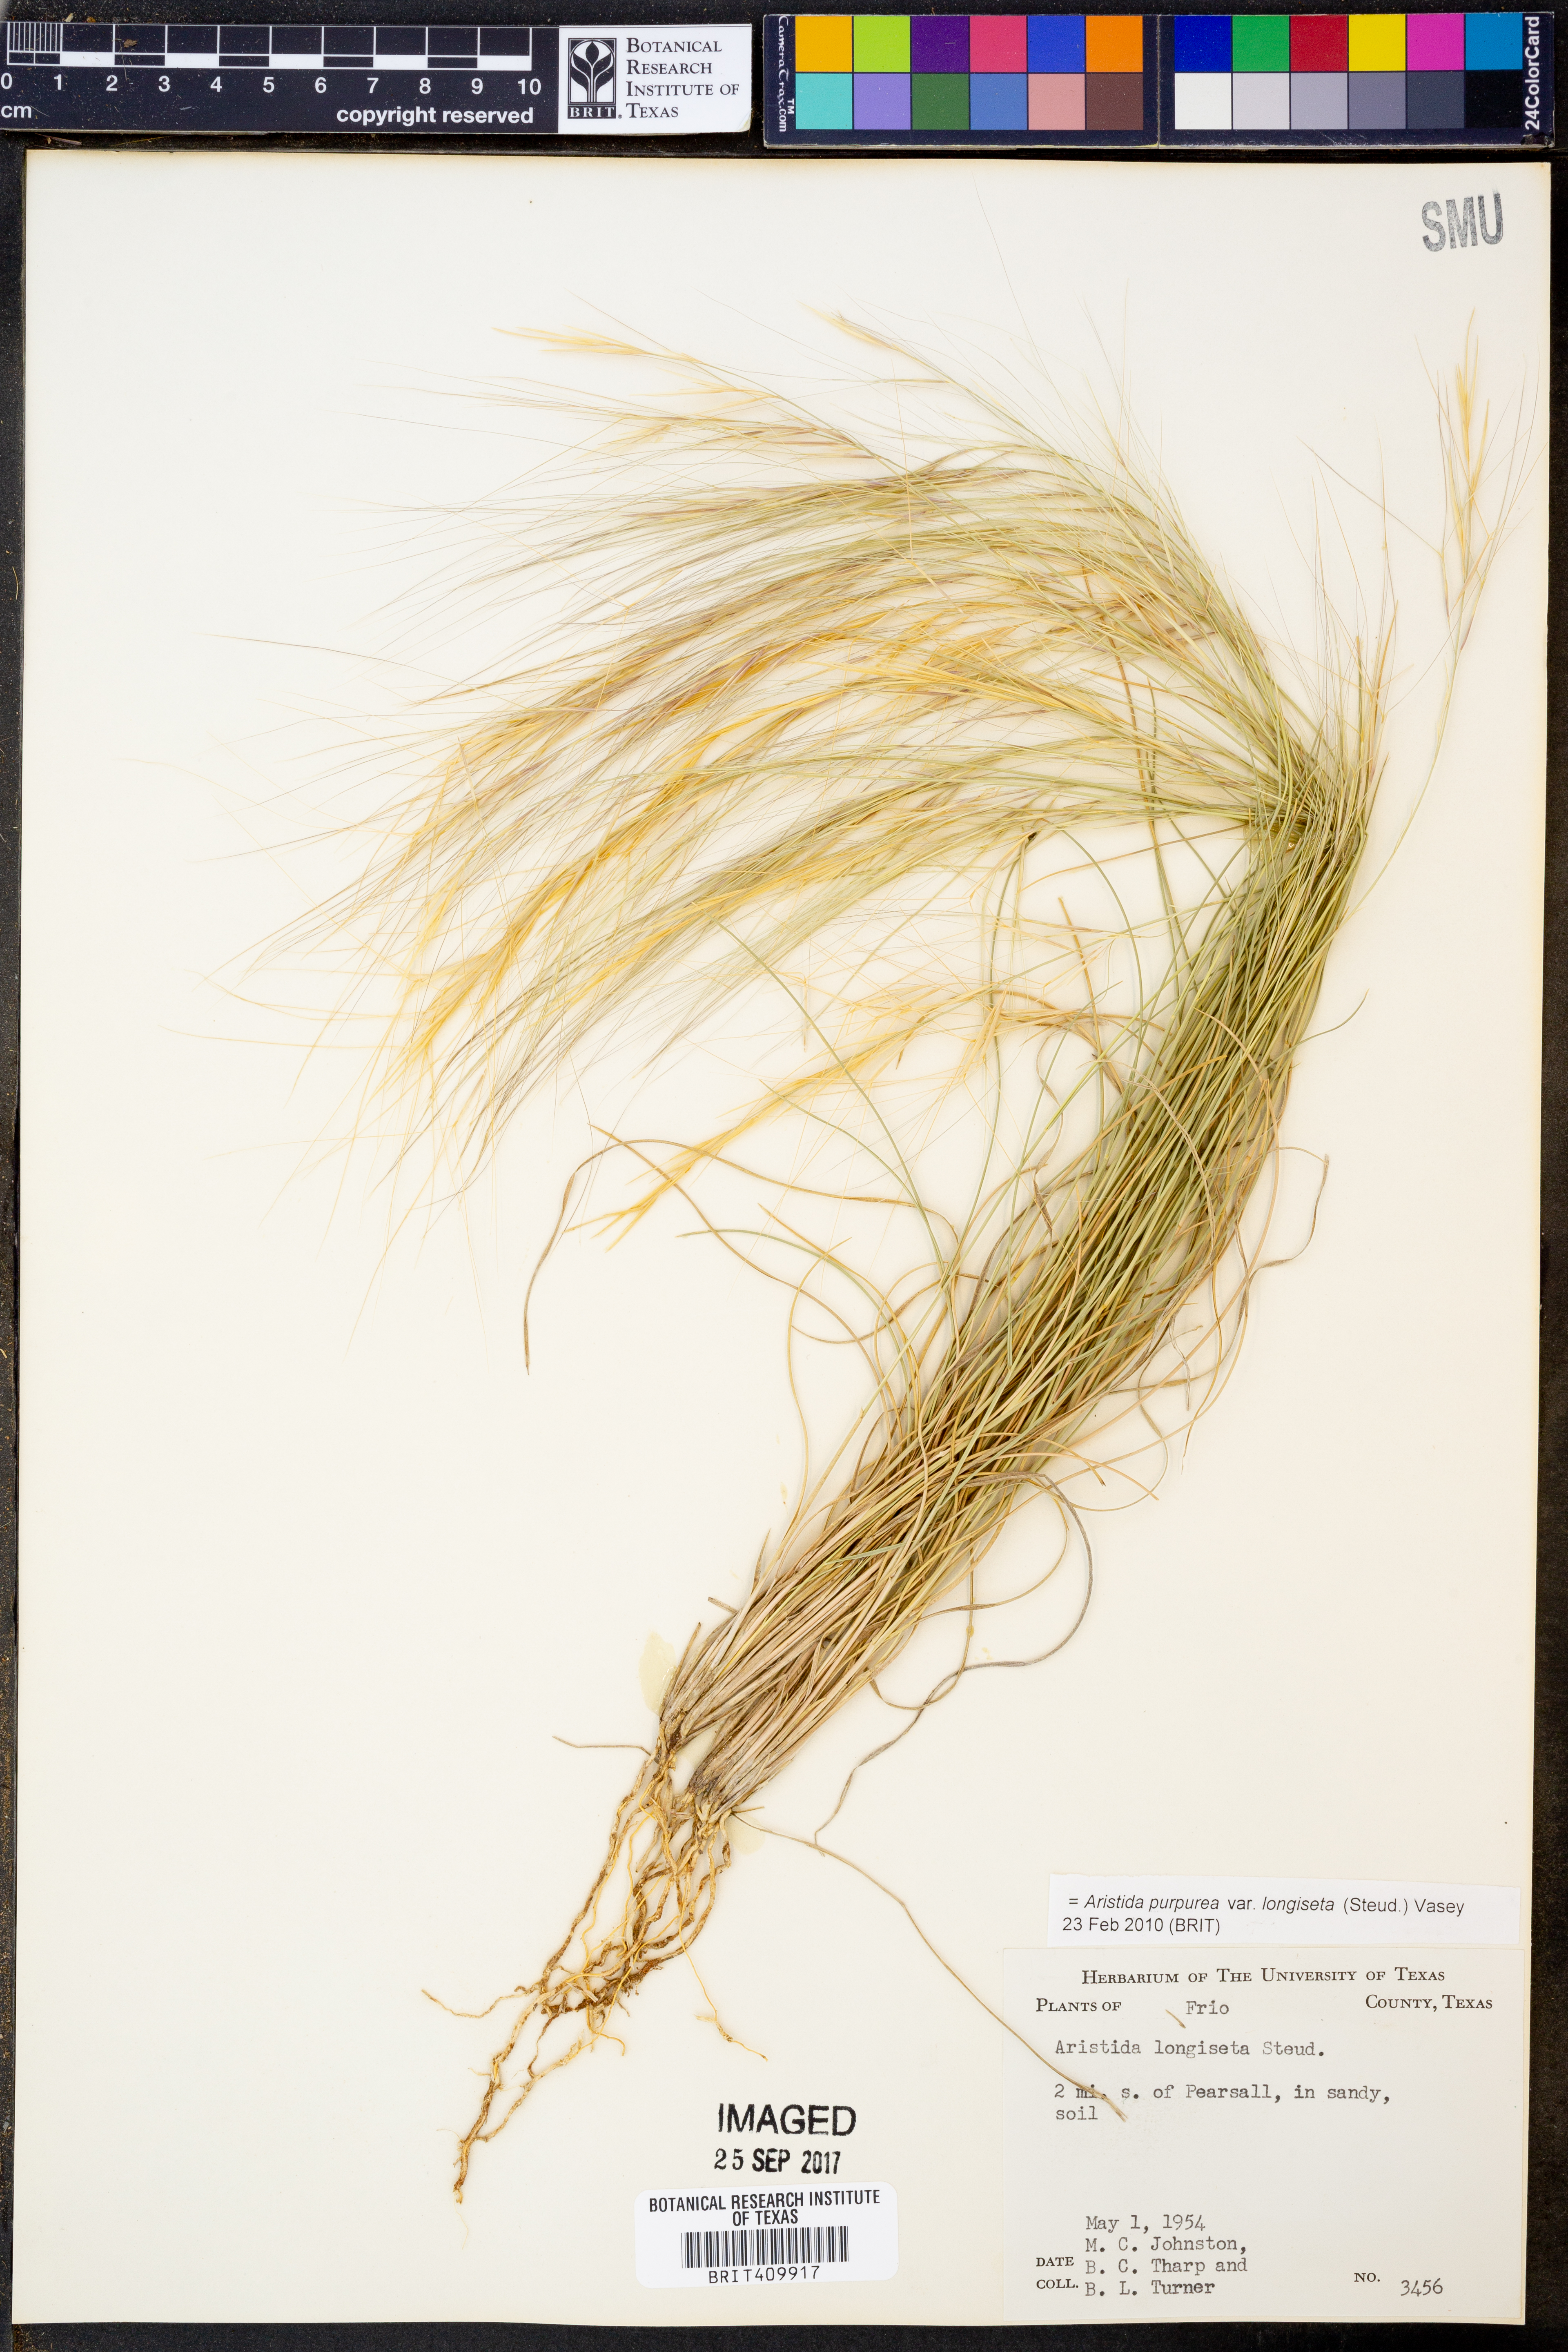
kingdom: Plantae
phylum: Tracheophyta
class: Liliopsida
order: Poales
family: Poaceae
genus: Aristida
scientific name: Aristida longiseta
